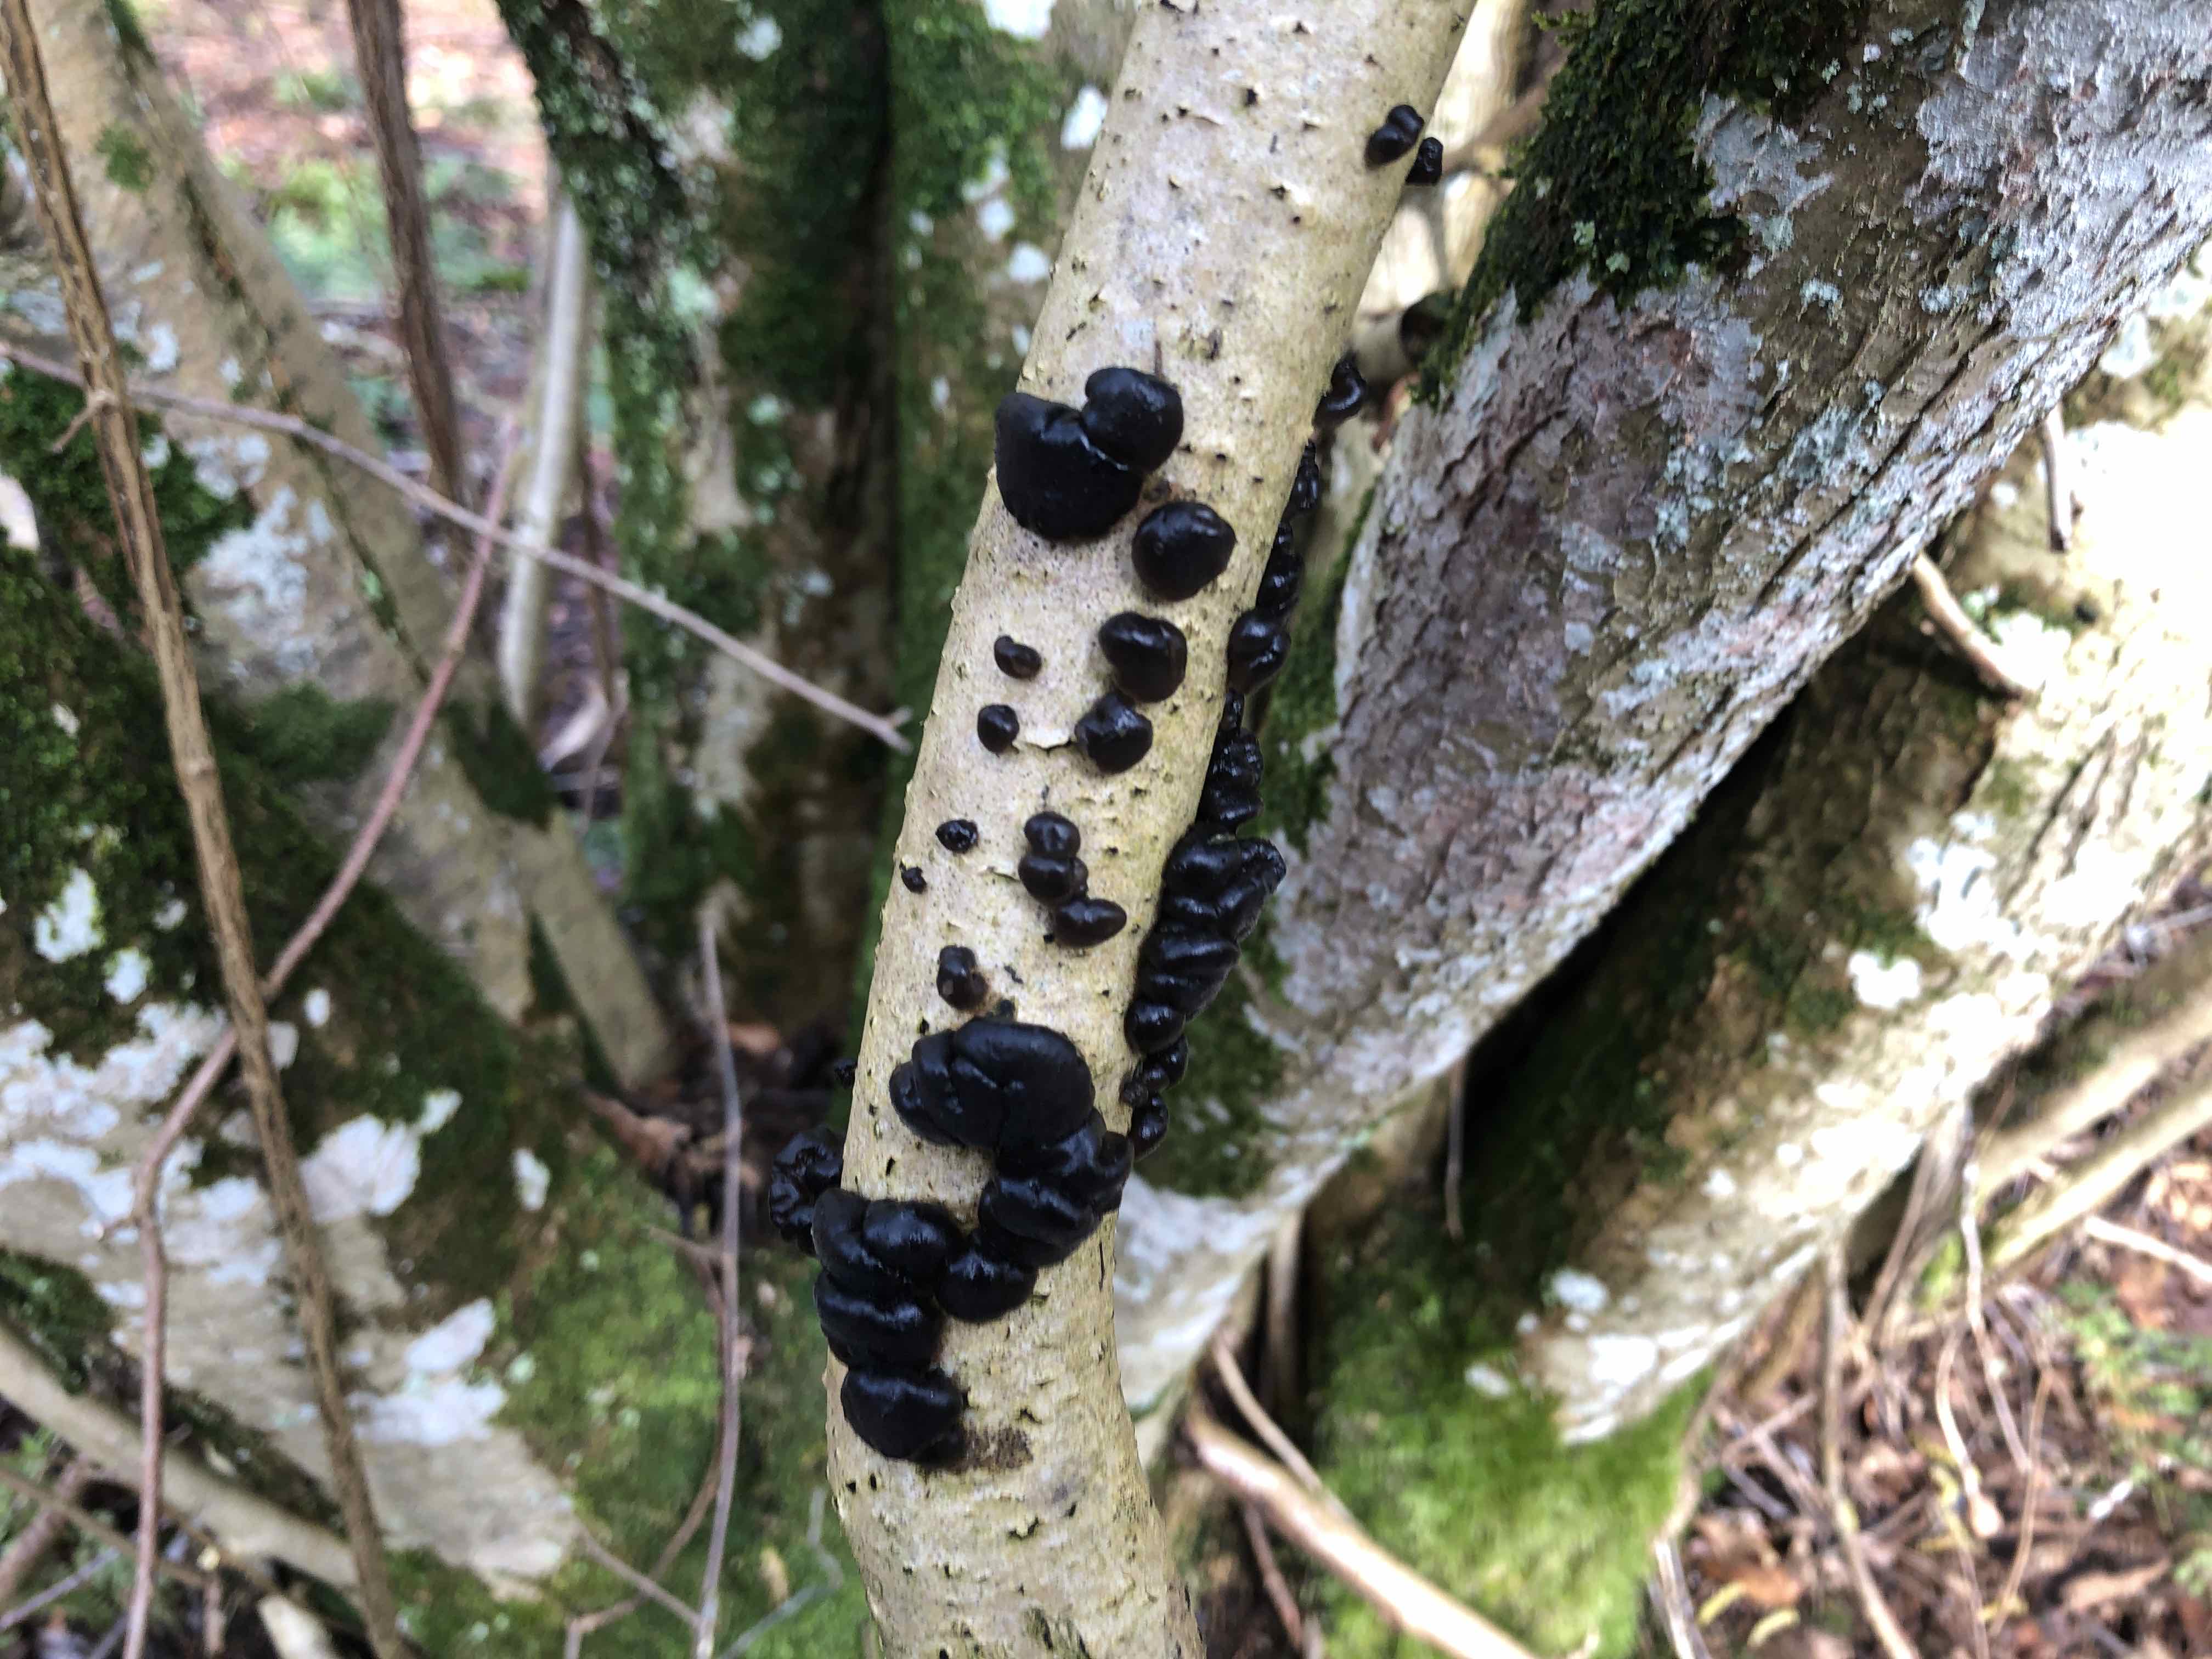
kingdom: Fungi
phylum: Basidiomycota
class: Agaricomycetes
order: Auriculariales
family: Auriculariaceae
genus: Exidia
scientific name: Exidia nigricans
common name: almindelig bævretop
